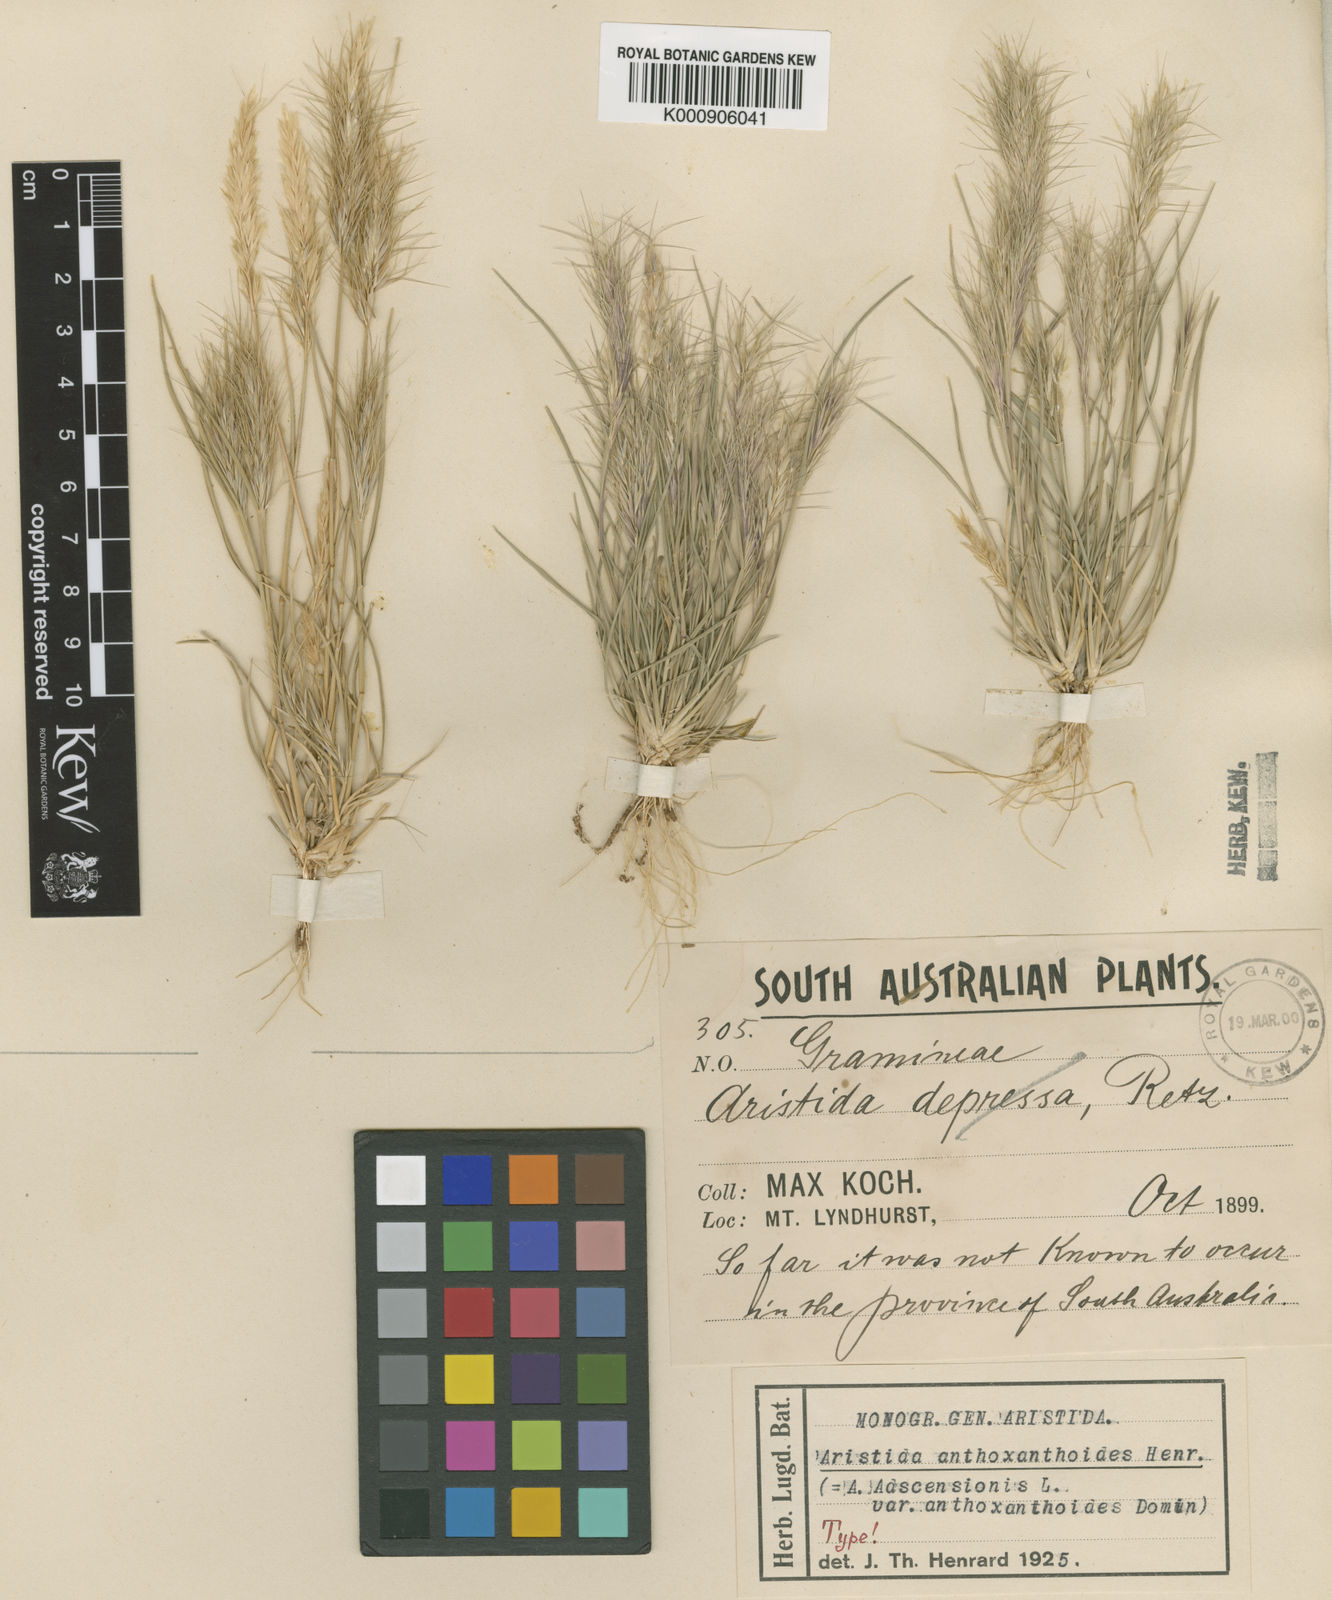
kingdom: Plantae
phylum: Tracheophyta
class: Liliopsida
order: Poales
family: Poaceae
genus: Aristida
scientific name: Aristida anthoxanthoides
